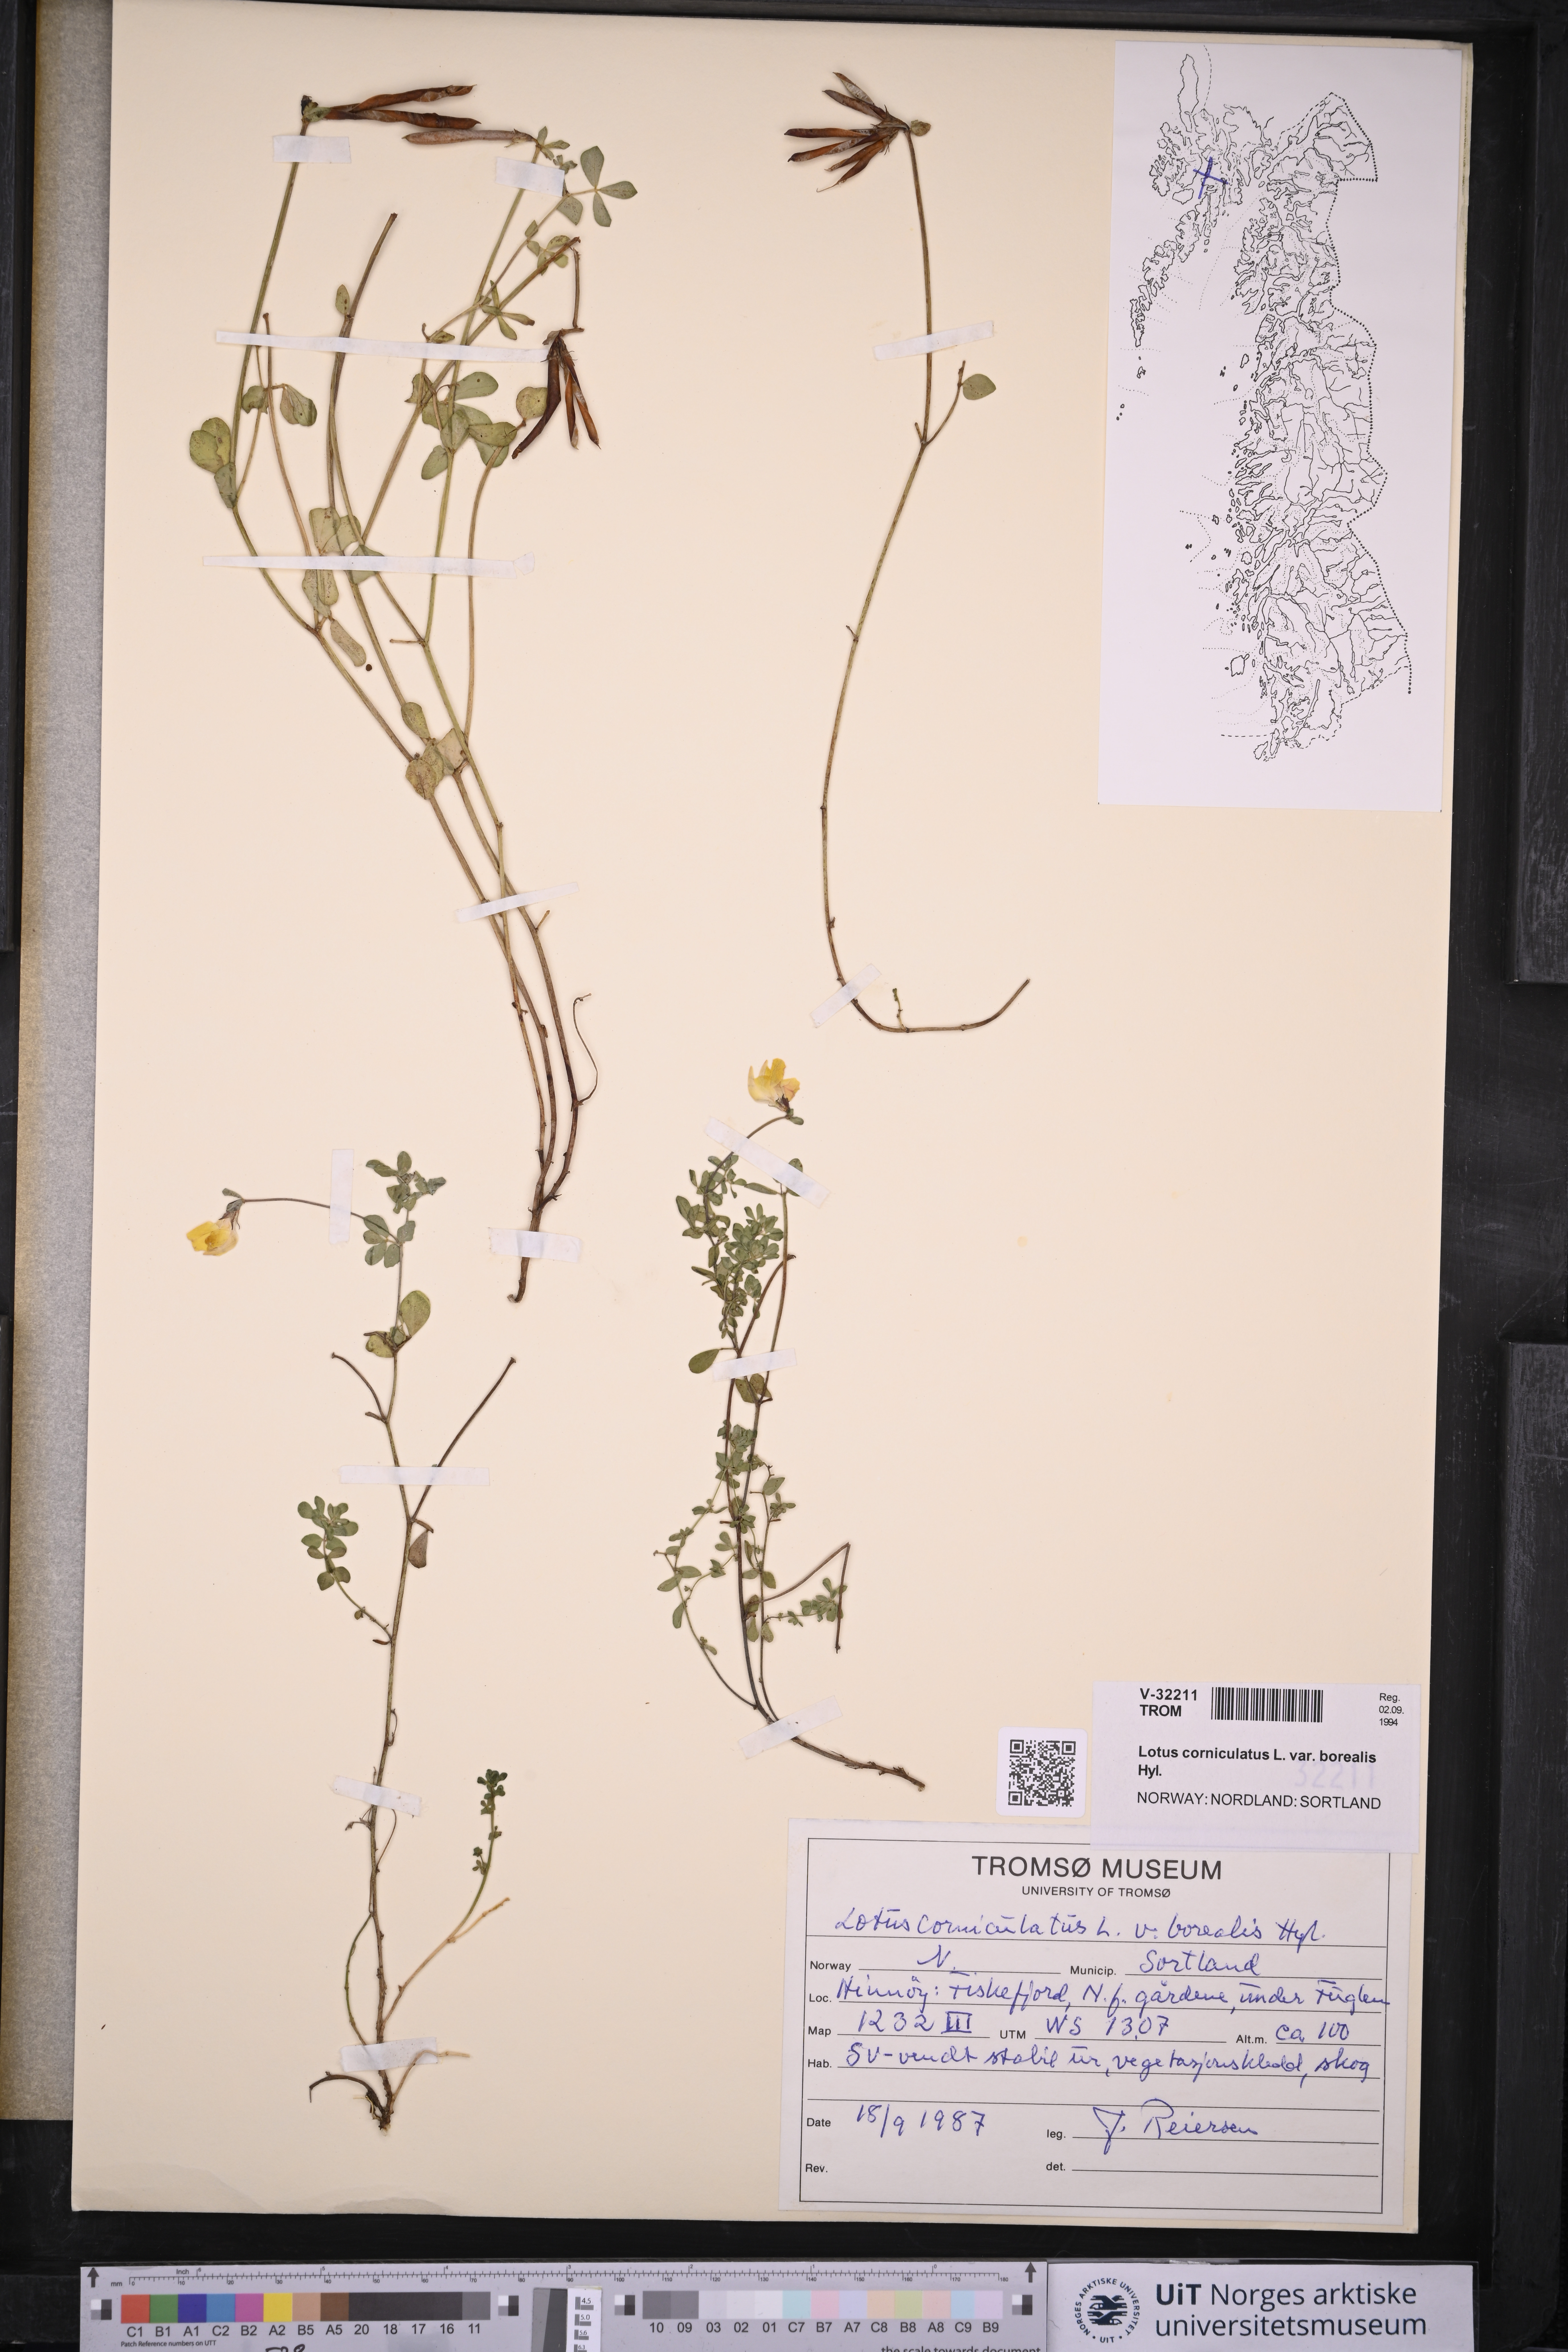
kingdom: Plantae
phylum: Tracheophyta
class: Magnoliopsida
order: Fabales
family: Fabaceae
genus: Lotus
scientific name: Lotus corniculatus
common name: Common bird's-foot-trefoil
